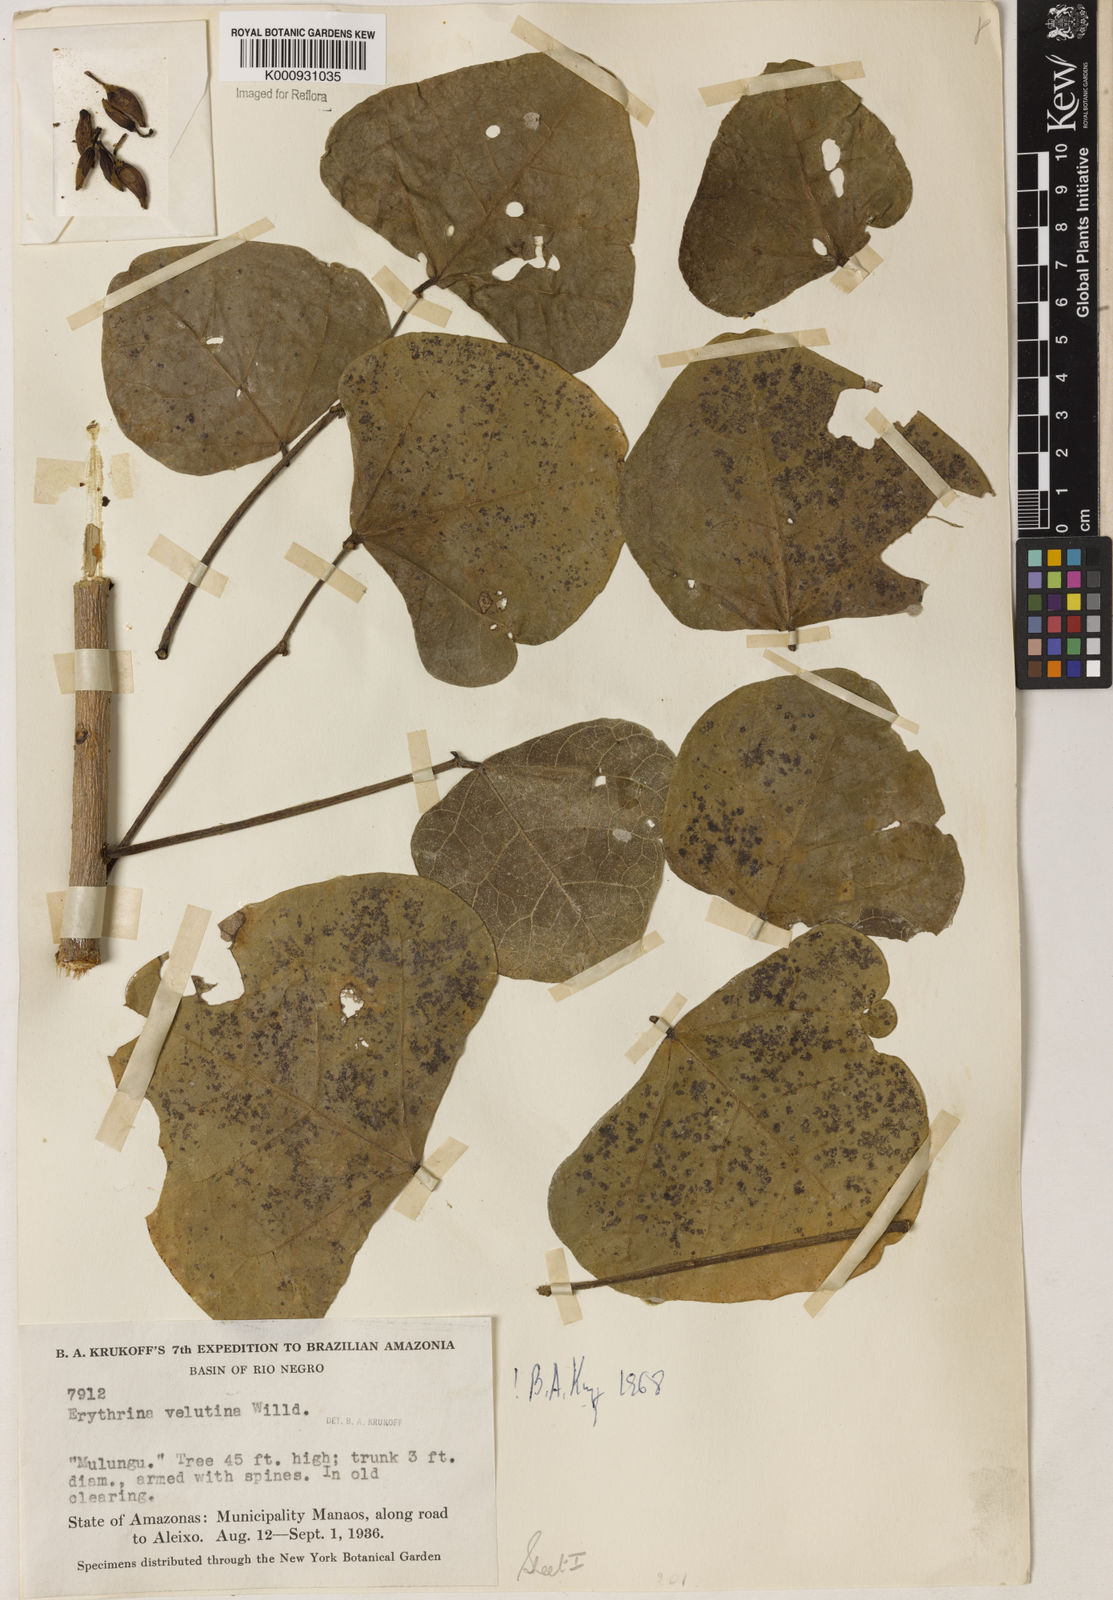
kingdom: Plantae
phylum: Tracheophyta
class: Magnoliopsida
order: Fabales
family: Fabaceae
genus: Erythrina
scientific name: Erythrina velutina
